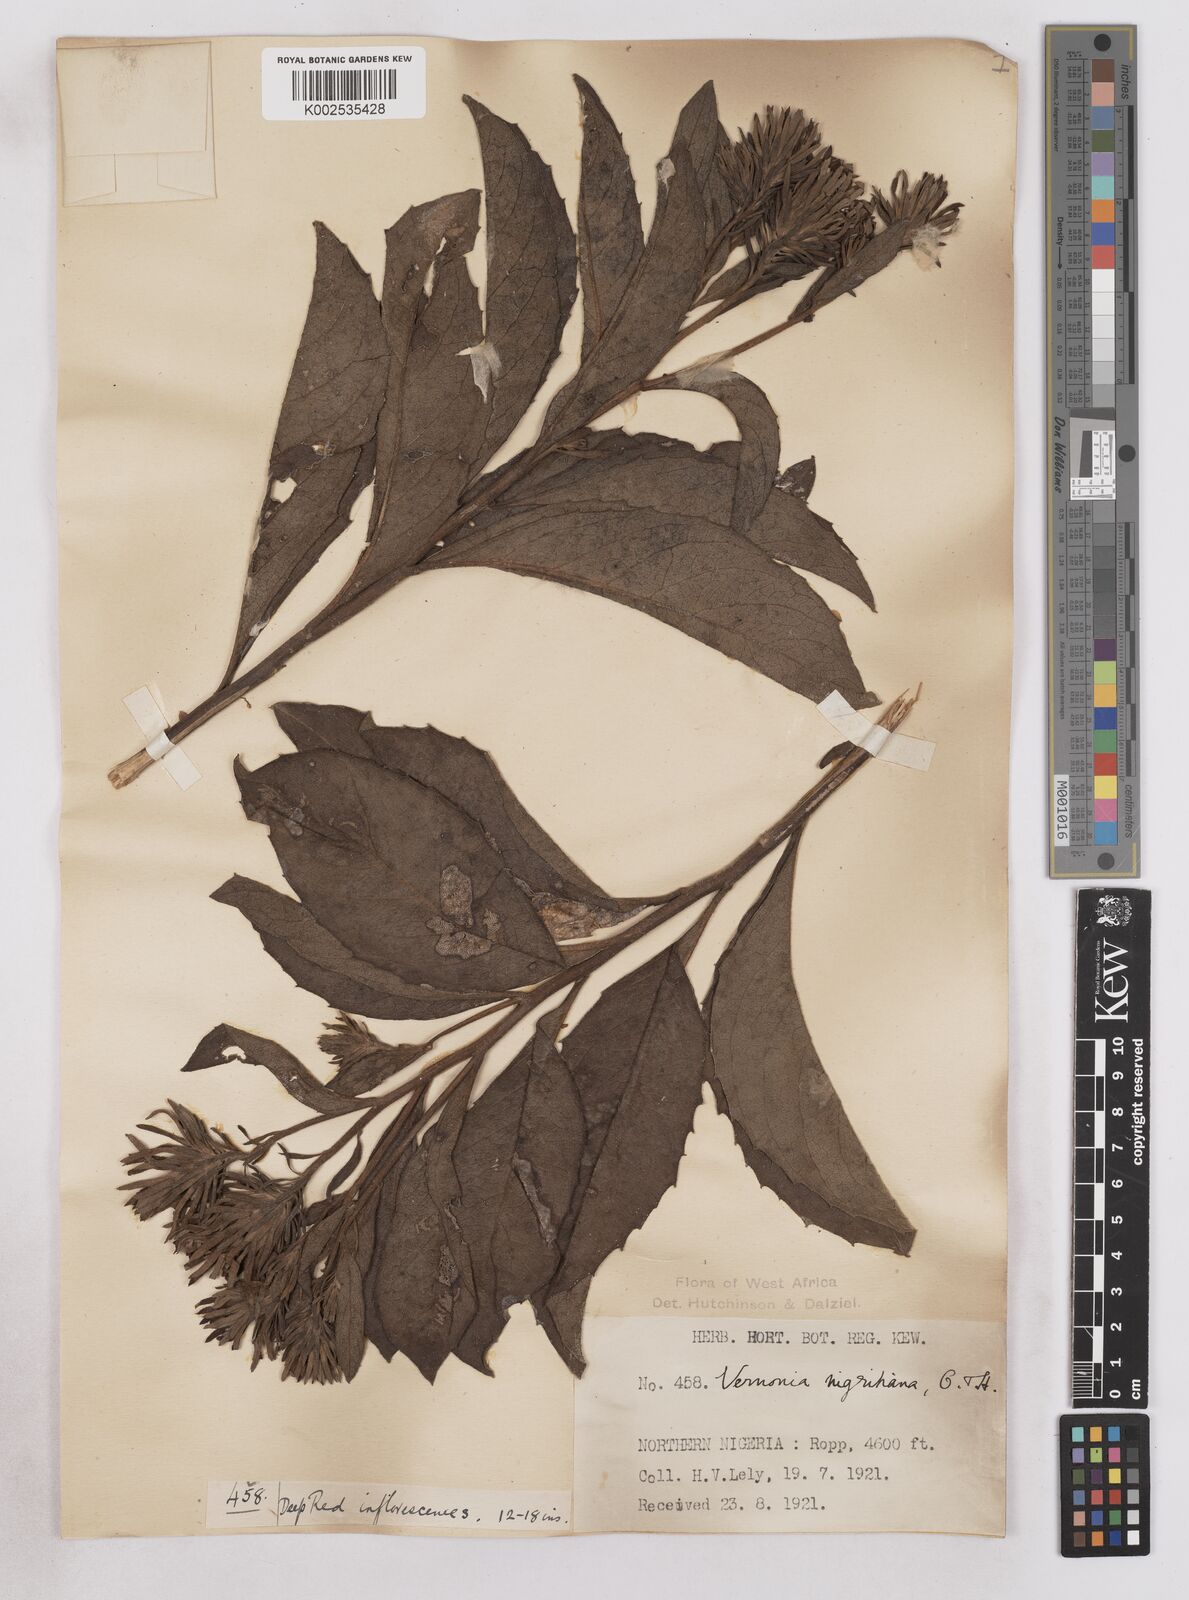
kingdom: Plantae
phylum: Tracheophyta
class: Magnoliopsida
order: Asterales
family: Asteraceae
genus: Linzia
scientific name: Linzia nigritiana
